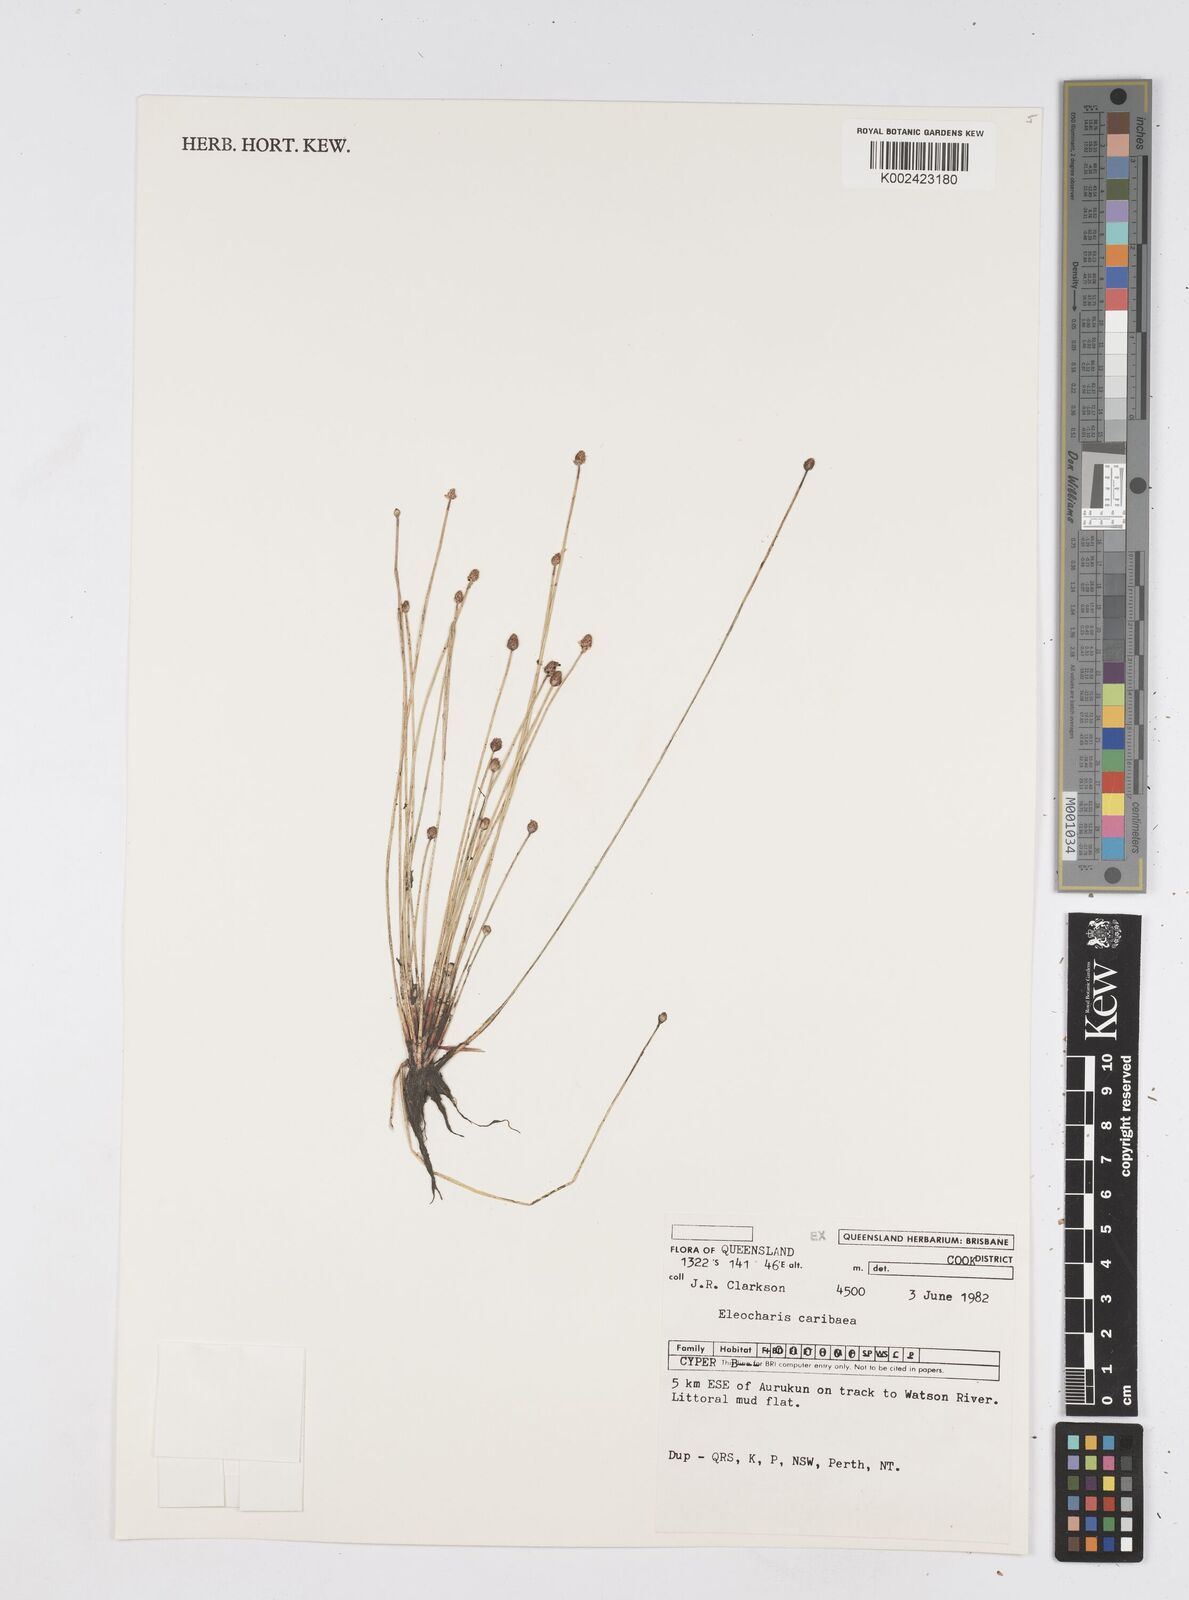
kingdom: Plantae
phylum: Tracheophyta
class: Liliopsida
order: Poales
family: Cyperaceae
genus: Eleocharis
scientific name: Eleocharis geniculata
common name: Canada spikesedge
